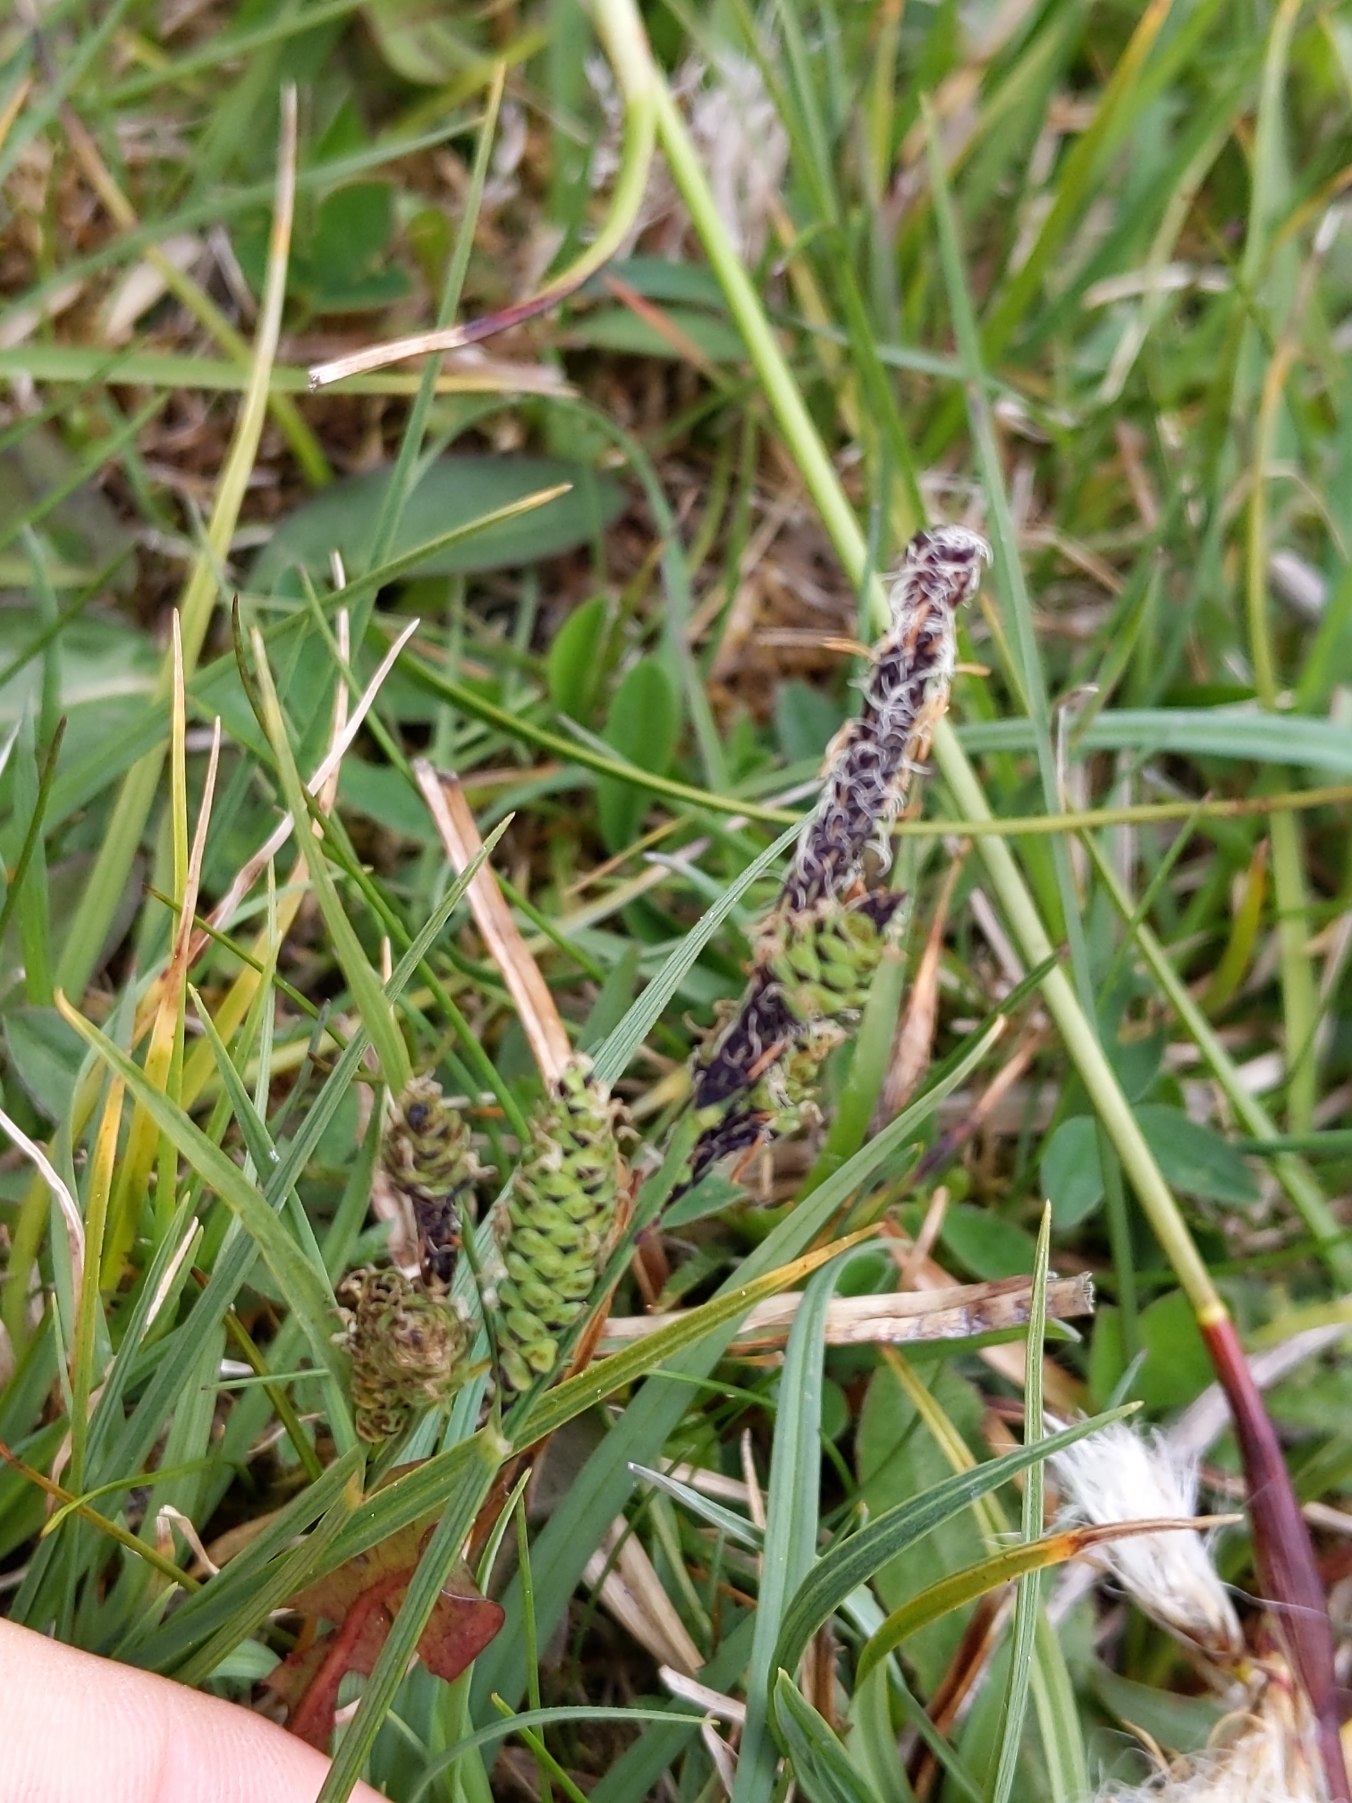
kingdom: Plantae
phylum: Tracheophyta
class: Liliopsida
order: Poales
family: Cyperaceae
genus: Carex
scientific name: Carex nigra
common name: Almindelig star
